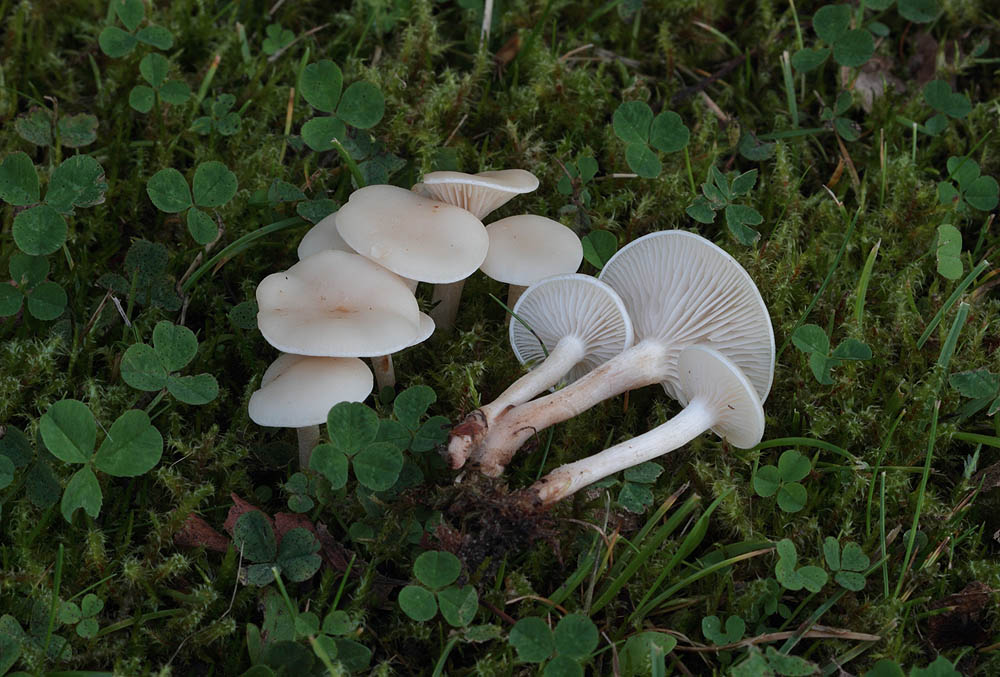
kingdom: Fungi
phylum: Basidiomycota
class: Agaricomycetes
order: Agaricales
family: Tricholomataceae
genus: Clitocybe
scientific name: Clitocybe agrestis
